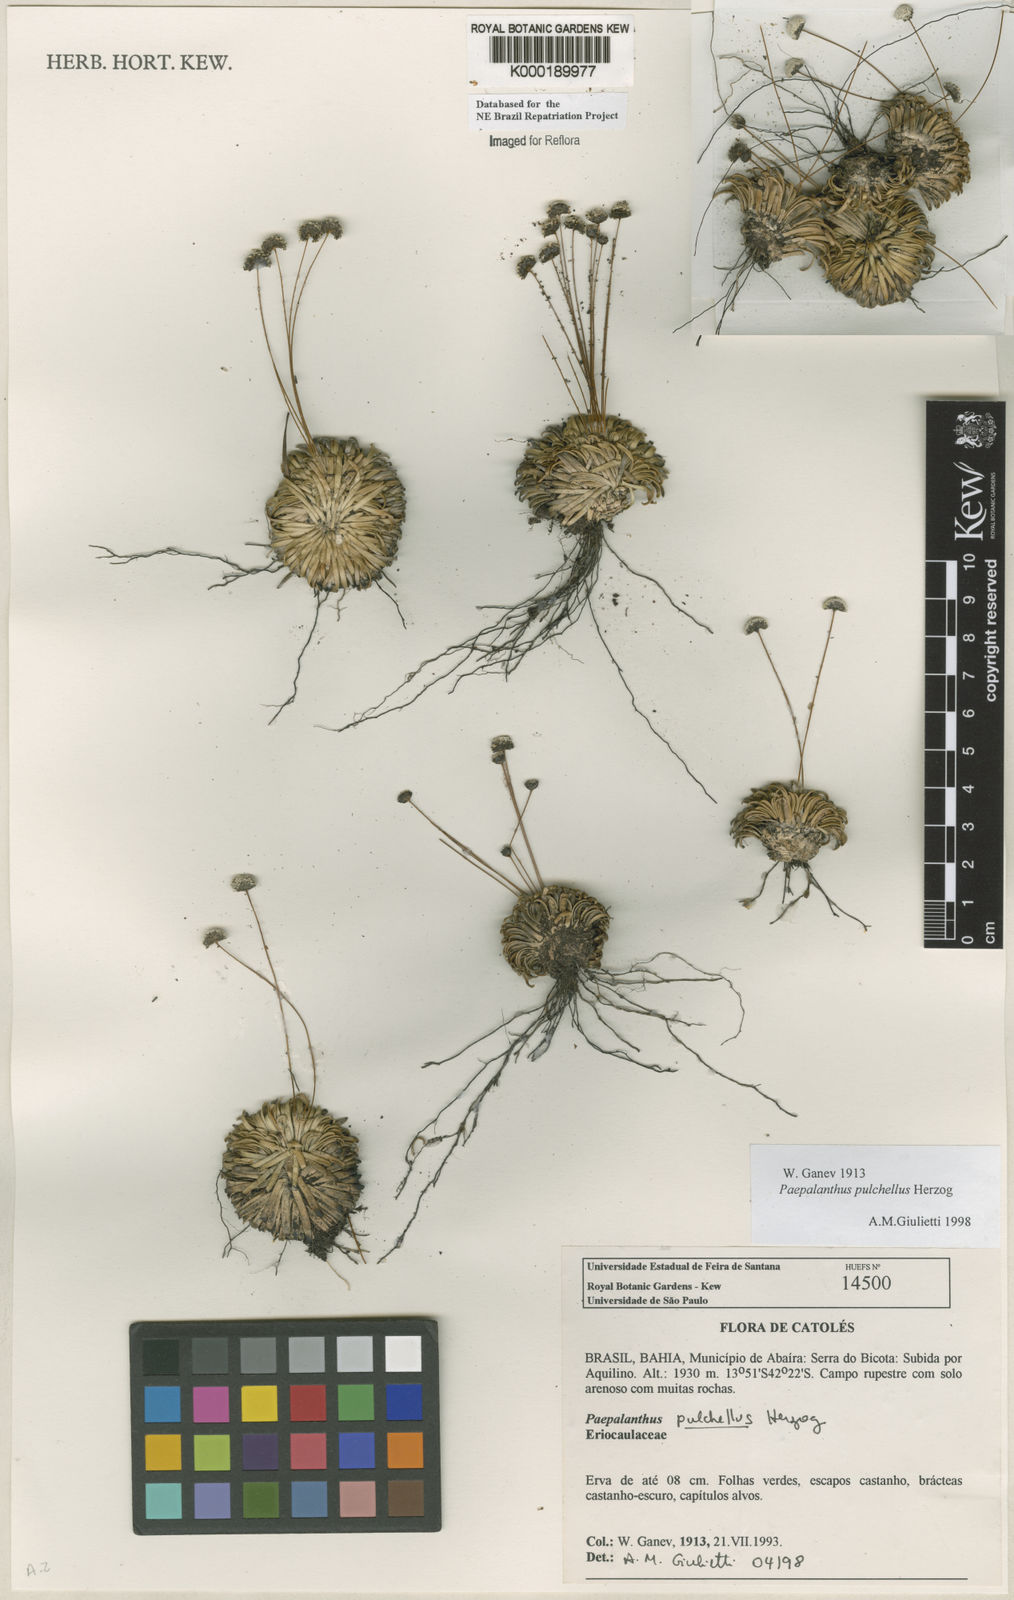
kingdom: Plantae
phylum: Tracheophyta
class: Liliopsida
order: Poales
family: Eriocaulaceae
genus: Paepalanthus
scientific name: Paepalanthus pulchellus
